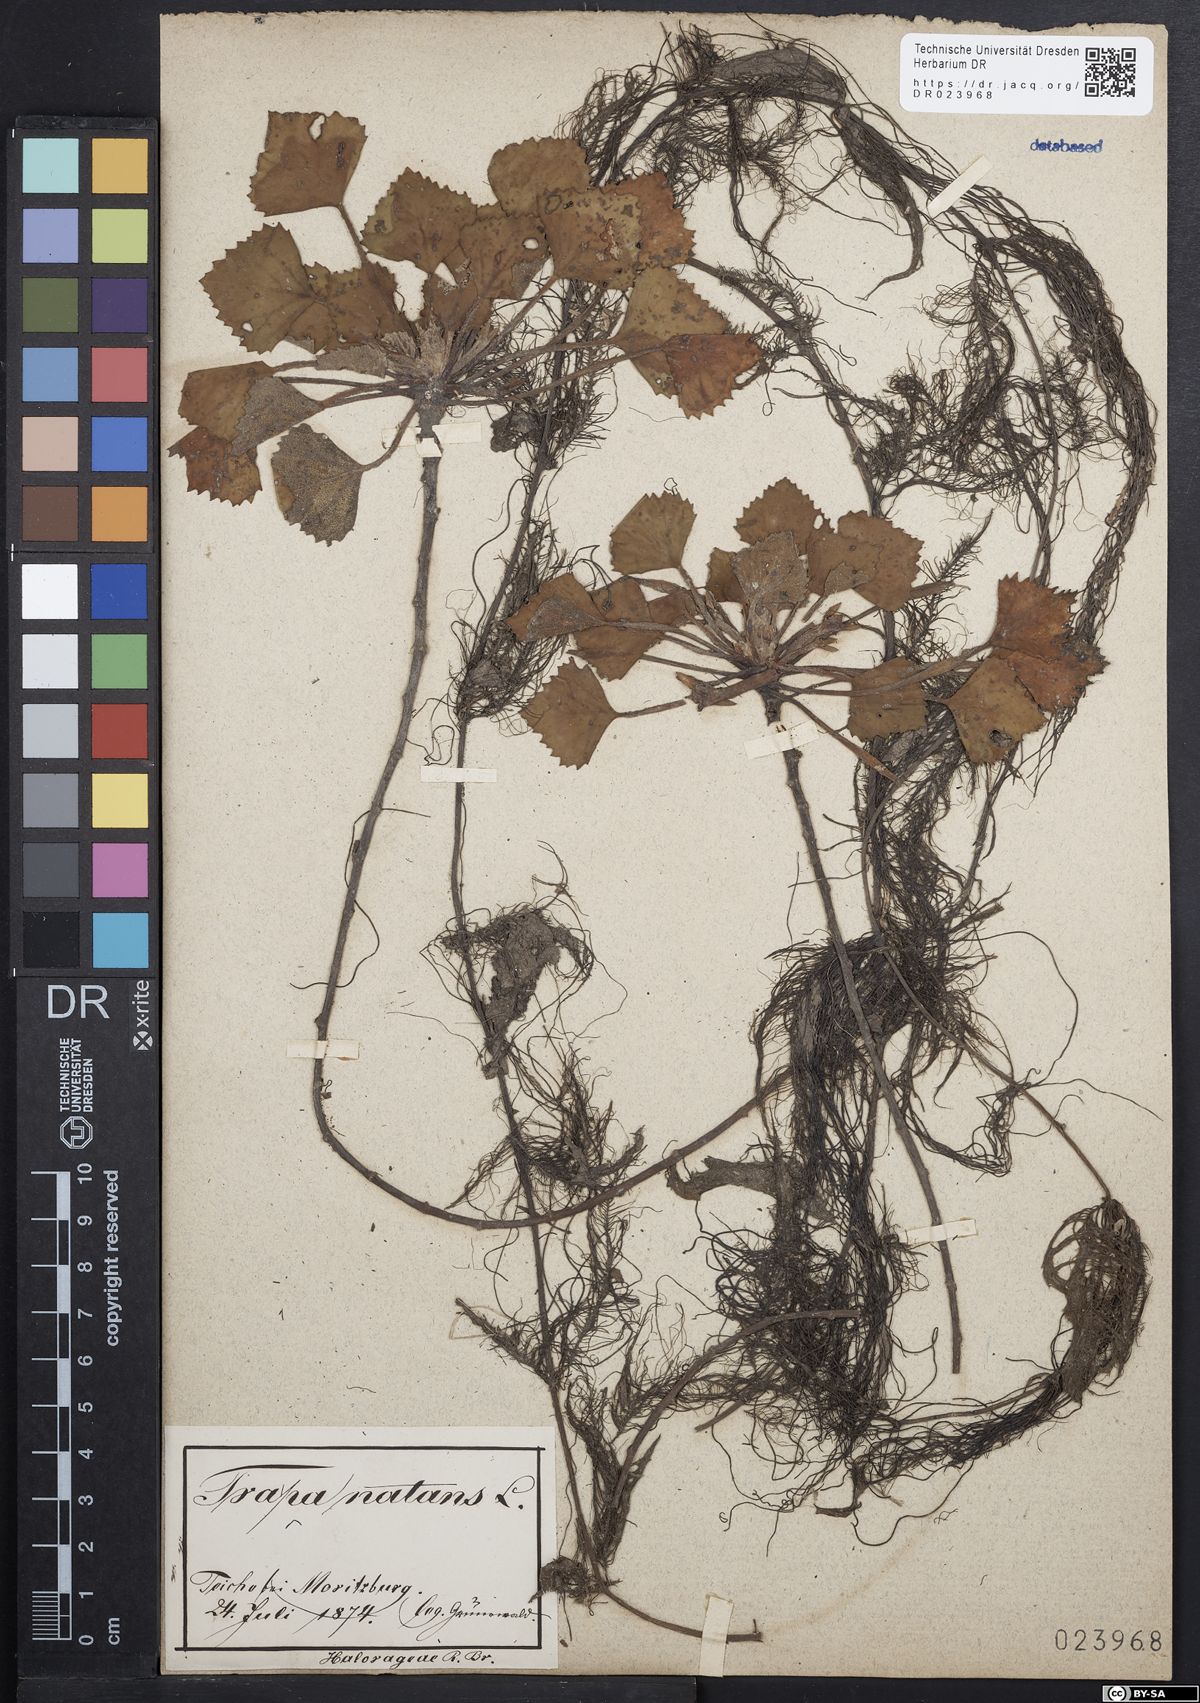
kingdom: Plantae
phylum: Tracheophyta
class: Magnoliopsida
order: Myrtales
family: Lythraceae
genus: Trapa
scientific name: Trapa natans
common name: Water chestnut
